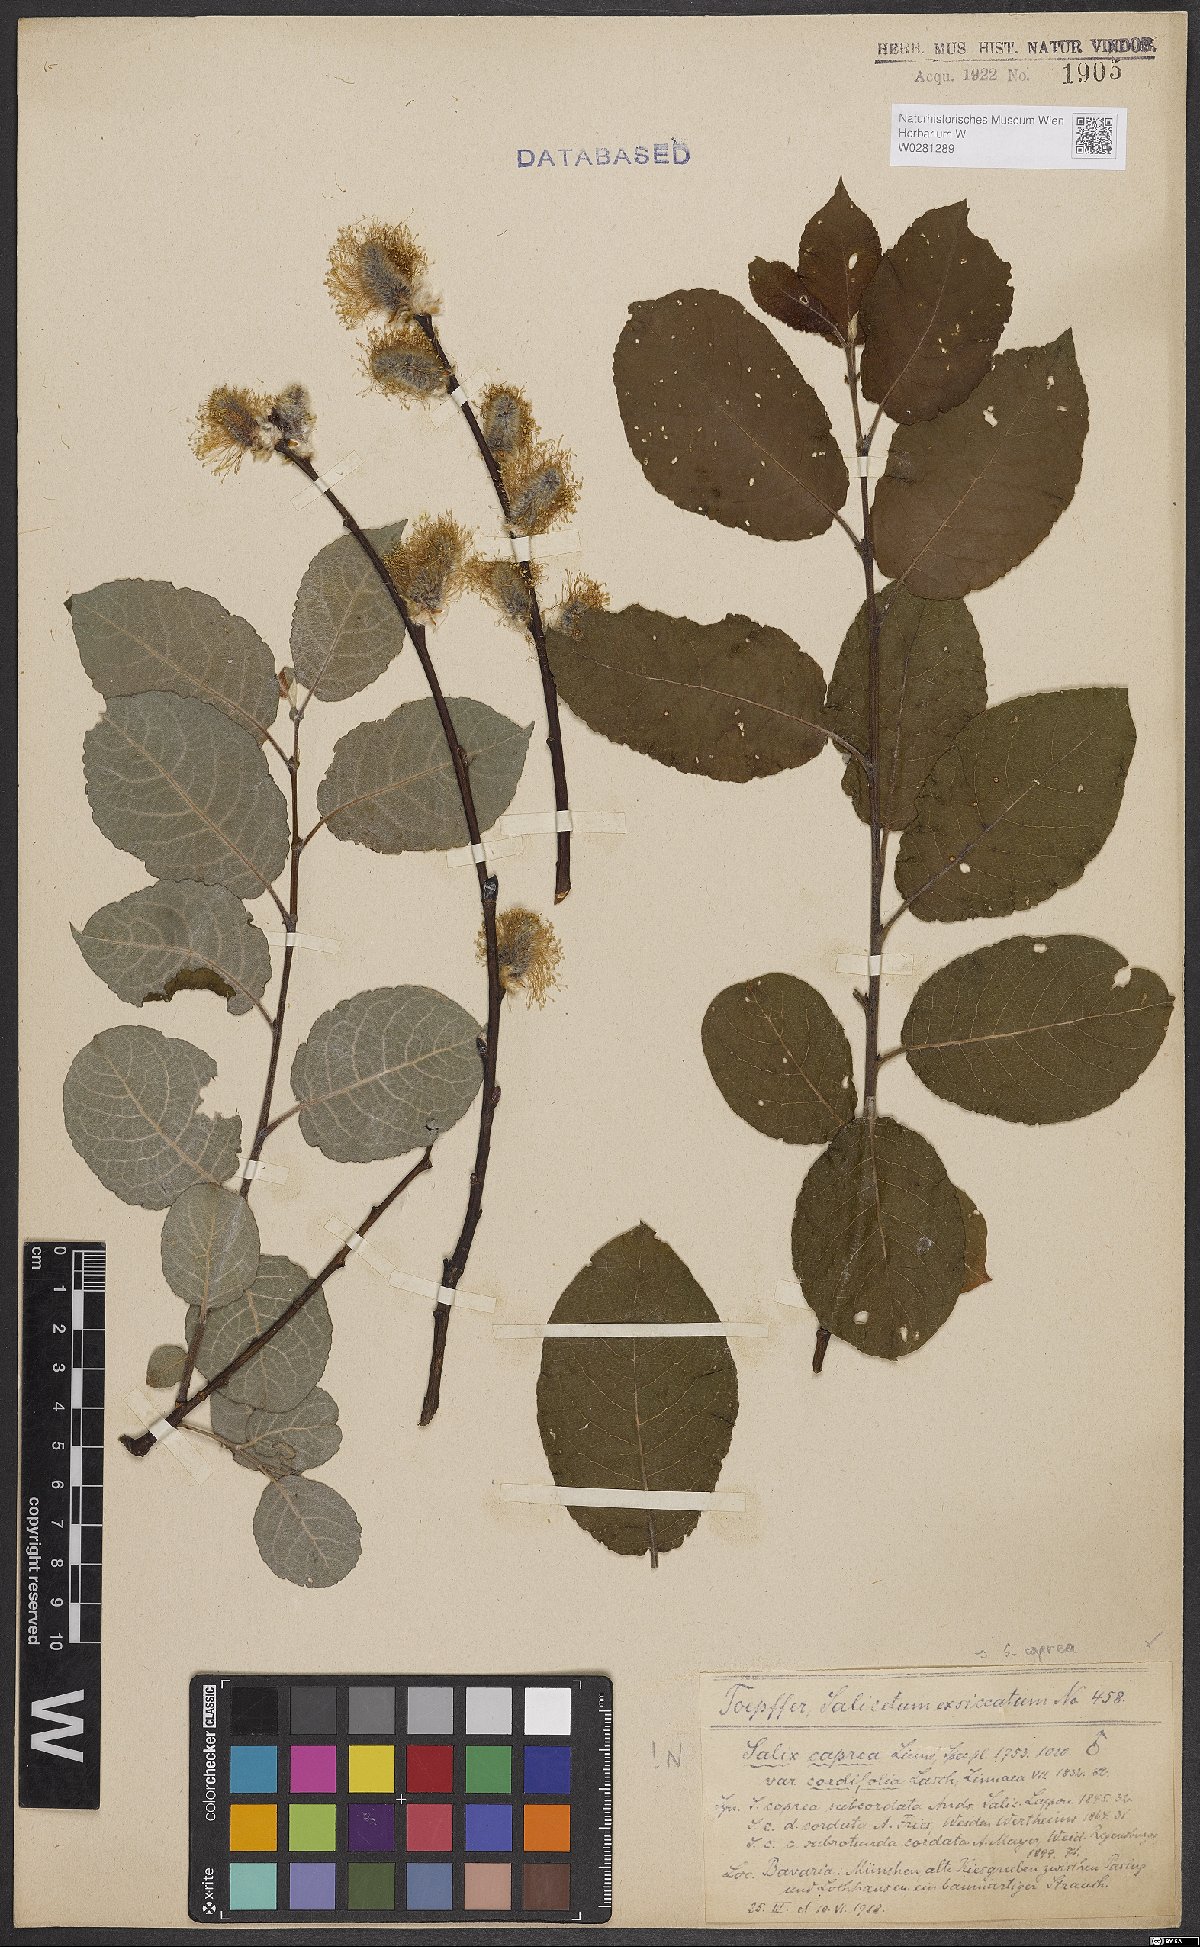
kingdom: Plantae
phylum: Tracheophyta
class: Magnoliopsida
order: Malpighiales
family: Salicaceae
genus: Salix
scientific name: Salix caprea
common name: Goat willow
